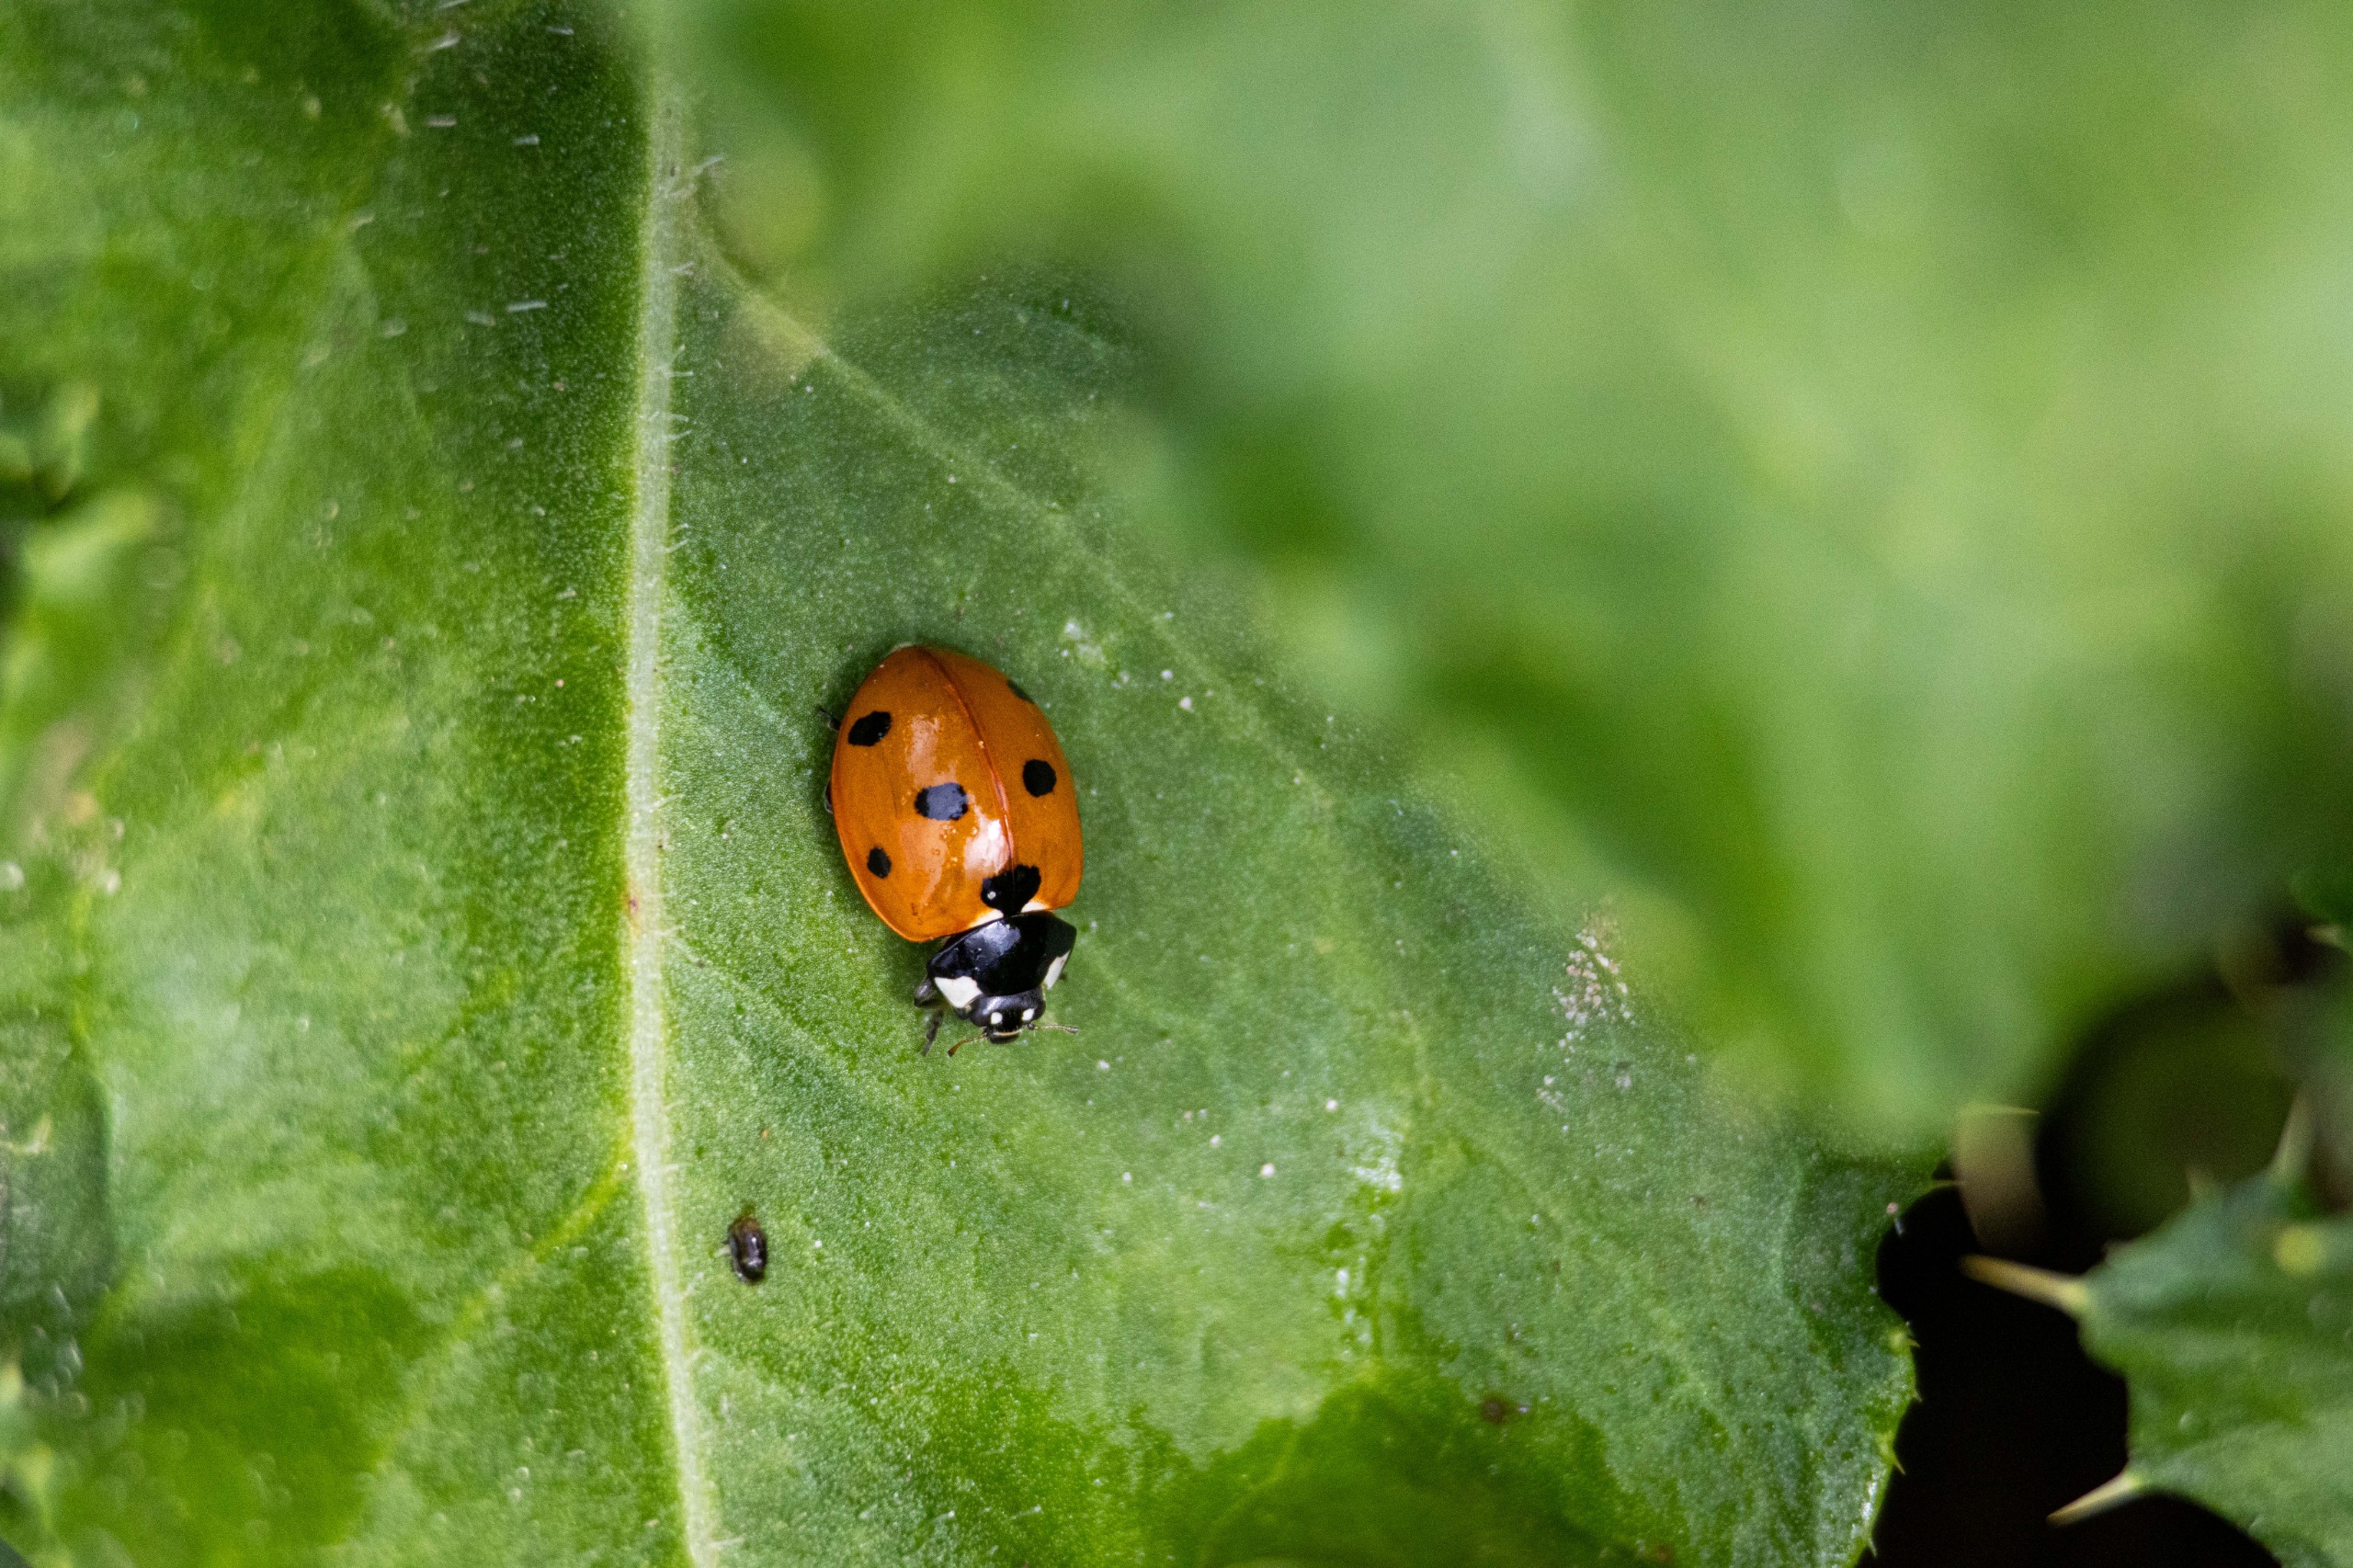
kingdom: Animalia
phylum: Arthropoda
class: Insecta
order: Coleoptera
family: Coccinellidae
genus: Coccinella
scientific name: Coccinella septempunctata
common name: Syvplettet mariehøne
